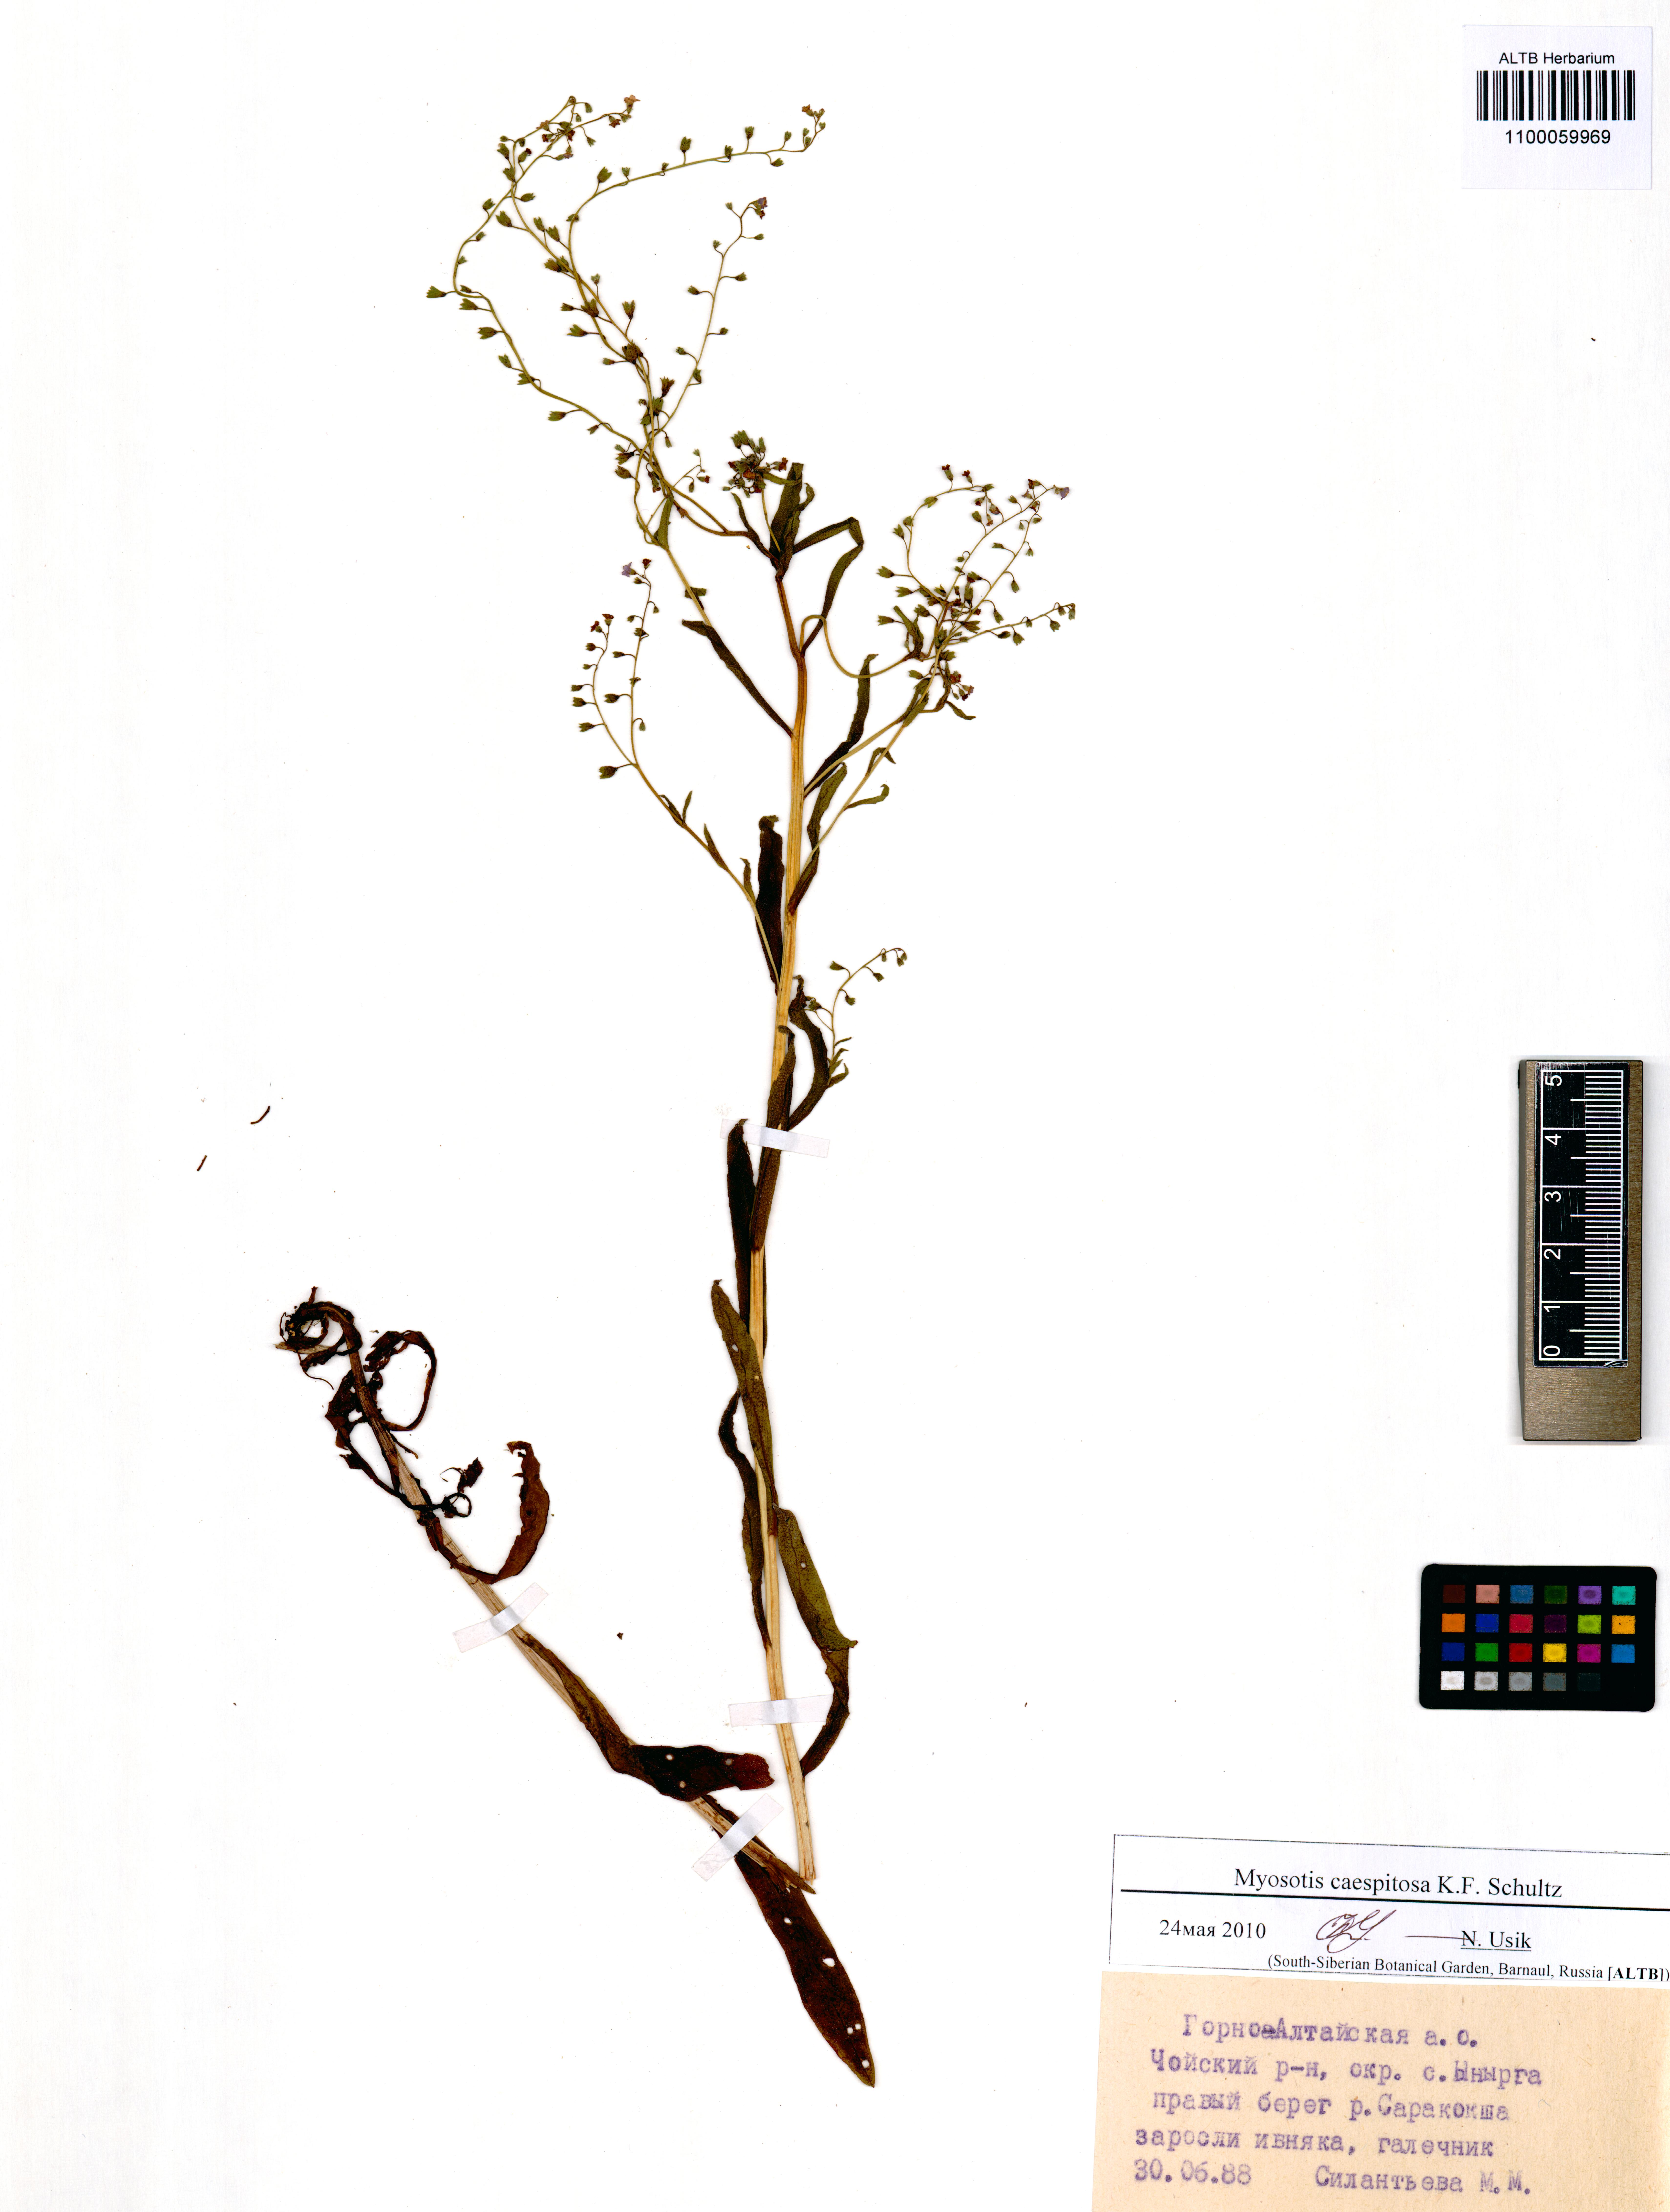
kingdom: Plantae
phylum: Tracheophyta
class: Magnoliopsida
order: Boraginales
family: Boraginaceae
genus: Myosotis
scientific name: Myosotis laxa
